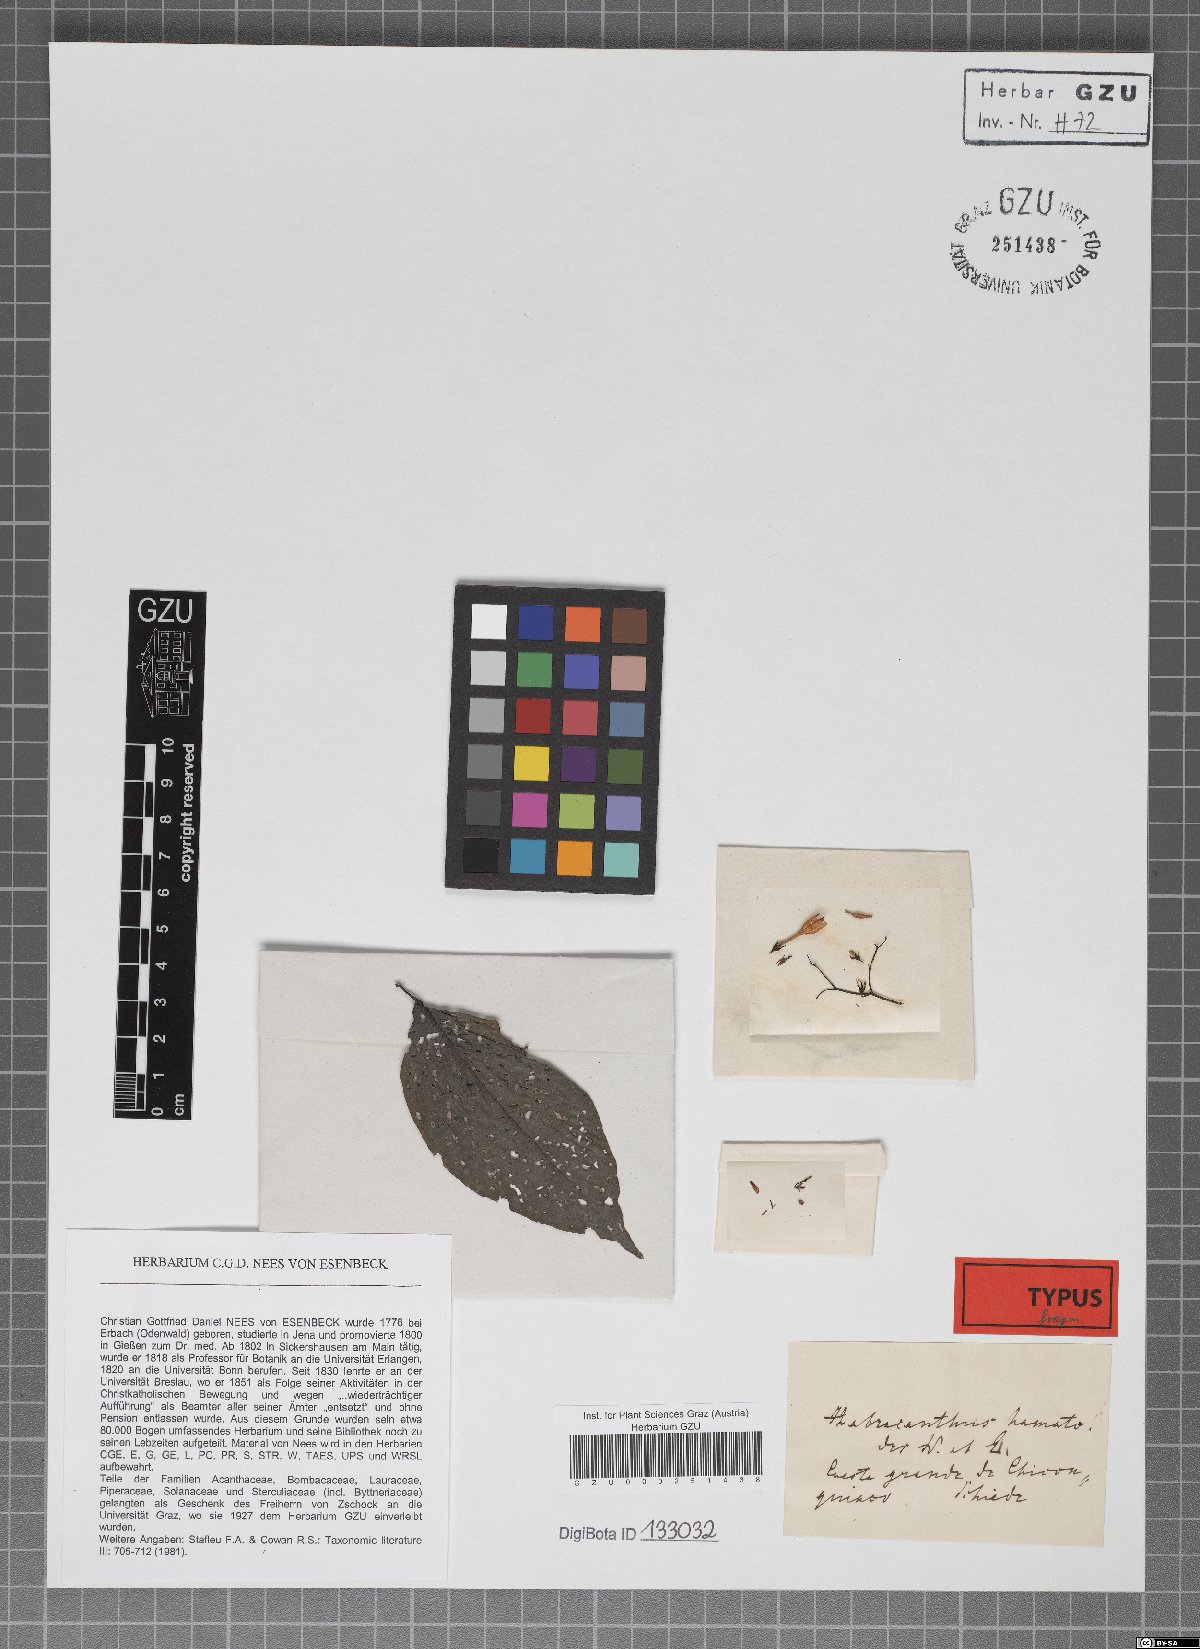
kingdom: Plantae
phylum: Tracheophyta
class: Magnoliopsida
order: Lamiales
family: Acanthaceae
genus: Stenostephanus
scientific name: Stenostephanus haematodes
